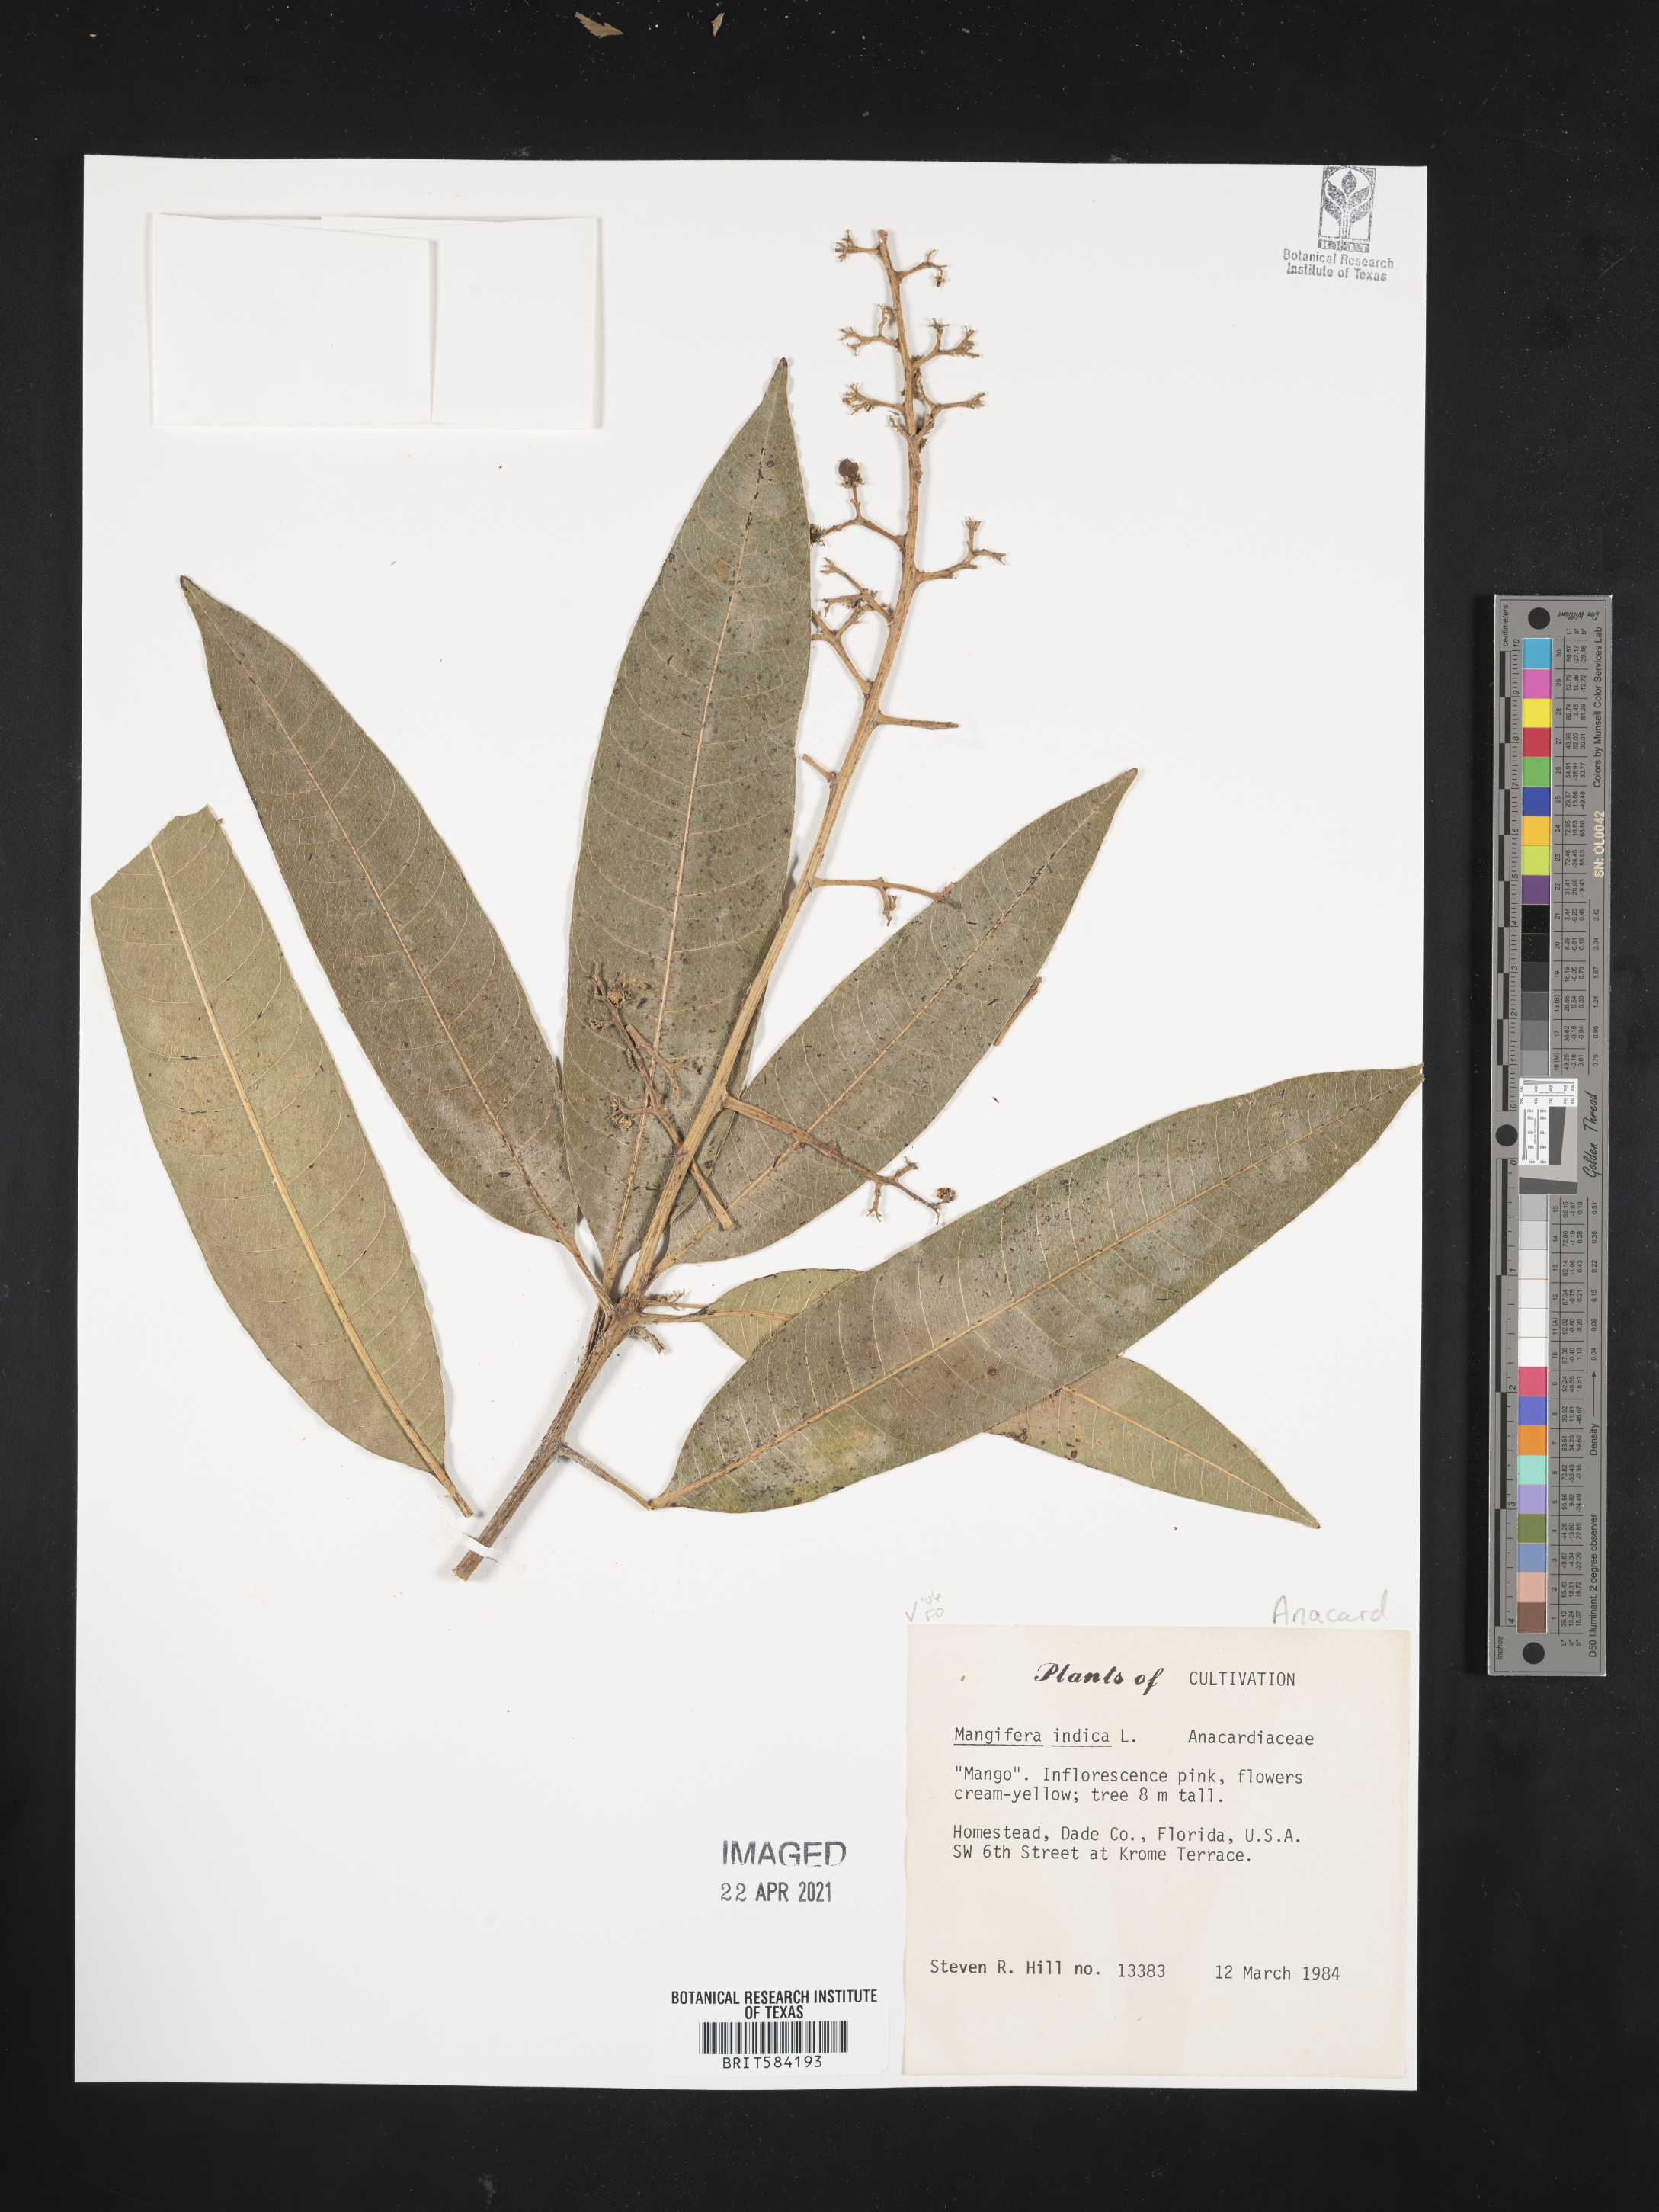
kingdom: Plantae
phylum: Tracheophyta
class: Magnoliopsida
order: Sapindales
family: Anacardiaceae
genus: Mangifera
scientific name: Mangifera sylvatica
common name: Nepal mango
